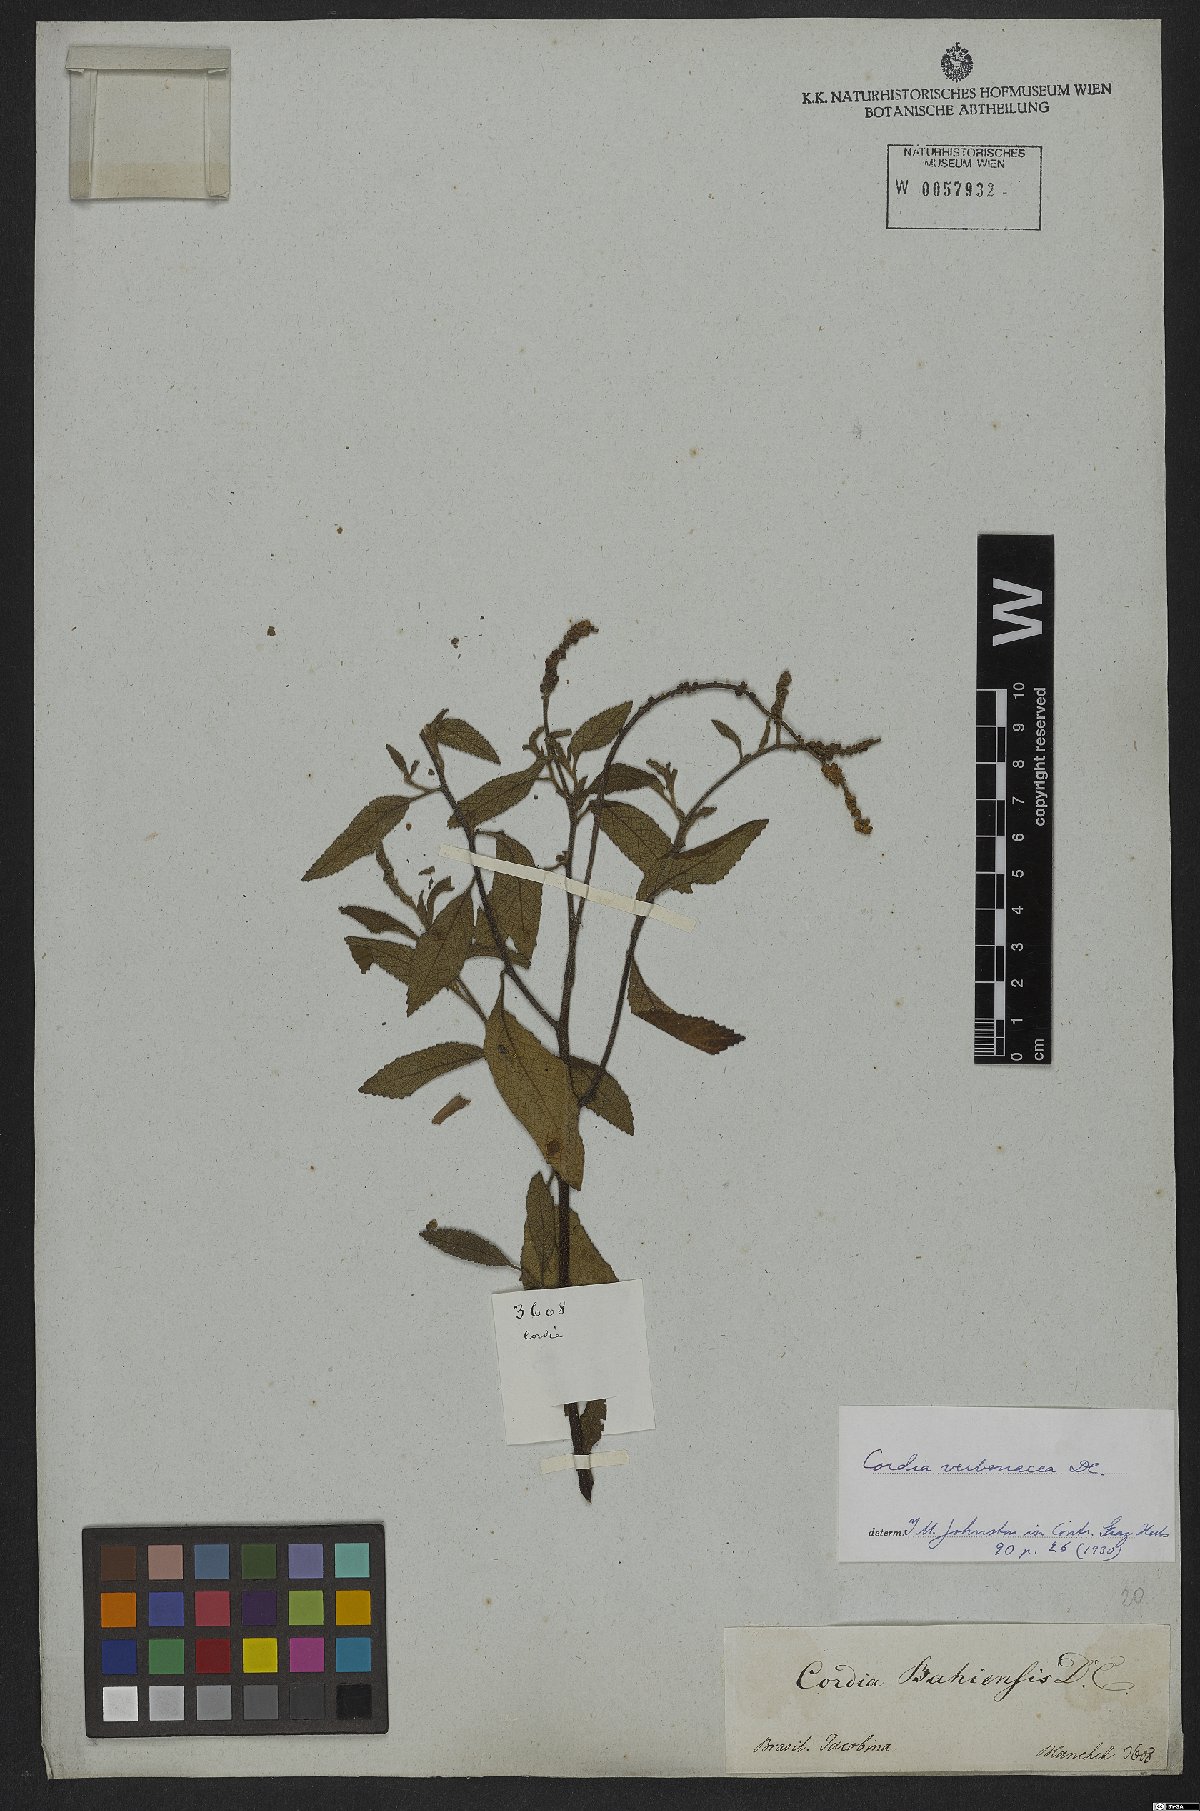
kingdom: Plantae
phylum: Tracheophyta
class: Magnoliopsida
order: Boraginales
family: Cordiaceae
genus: Varronia
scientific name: Varronia curassavica
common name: Black sage
